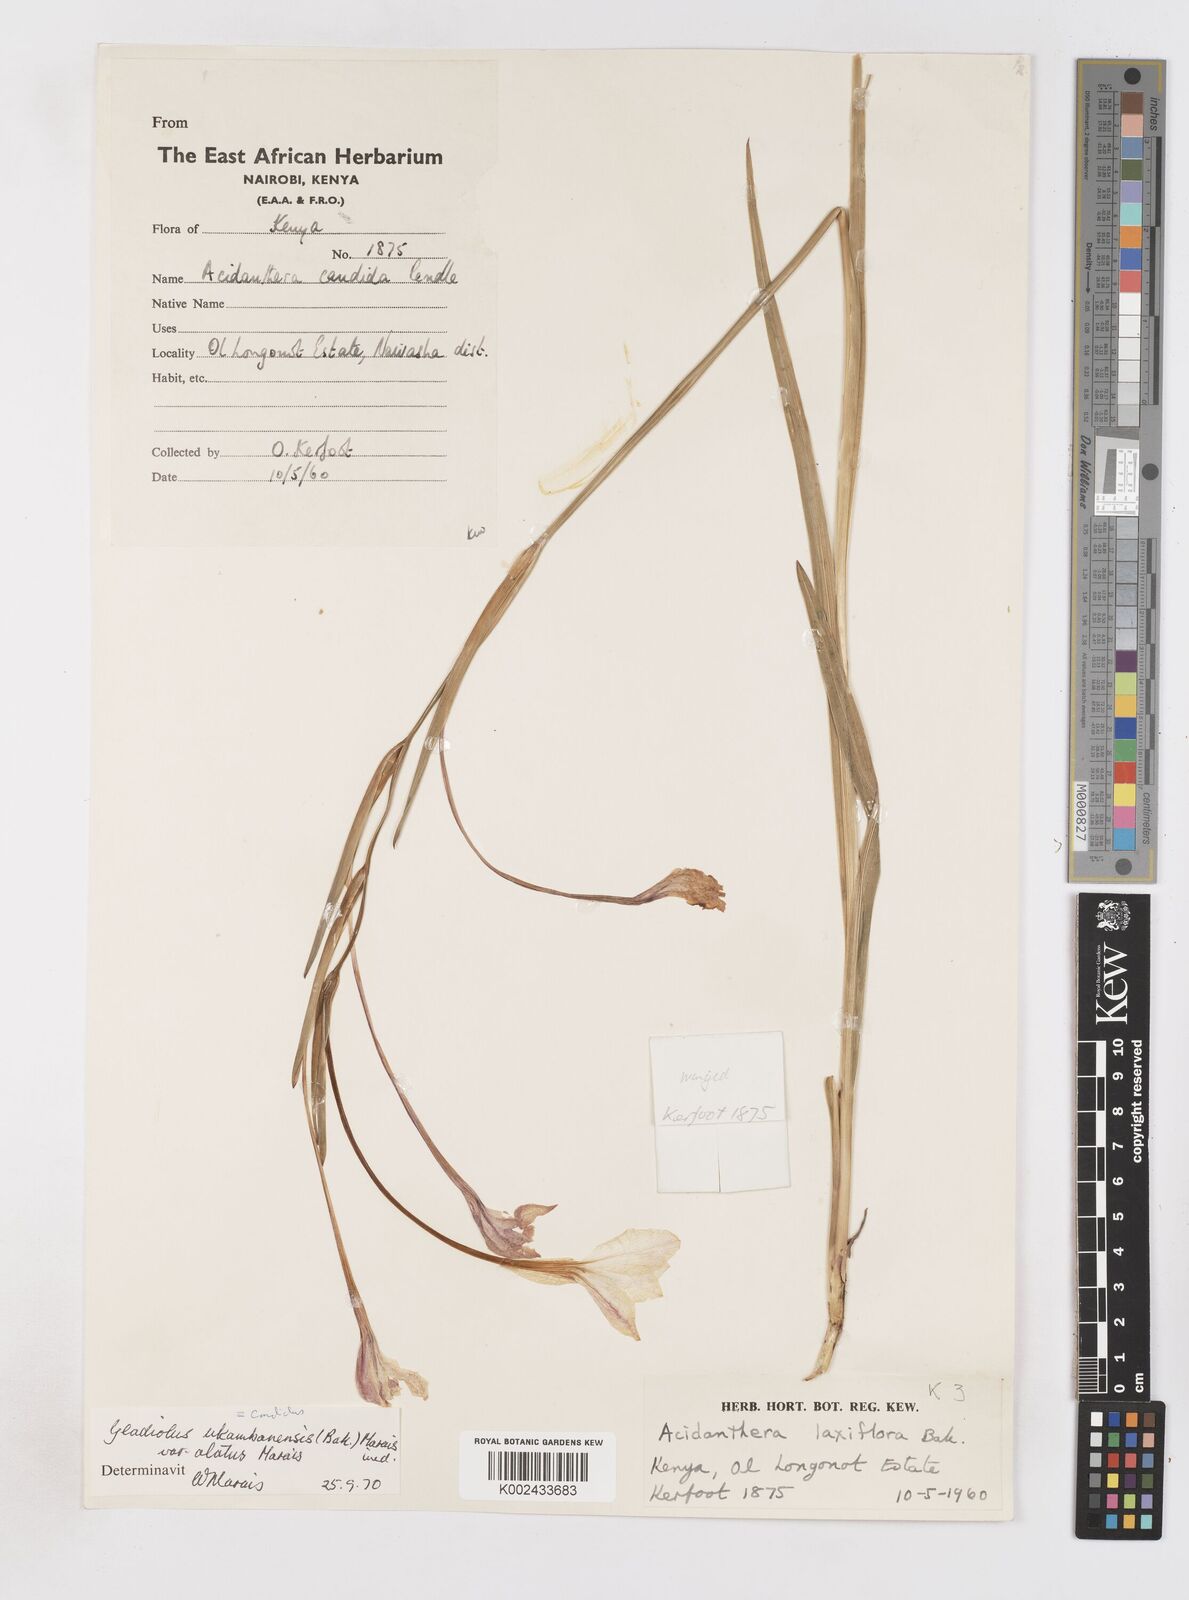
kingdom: Plantae
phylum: Tracheophyta
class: Liliopsida
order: Asparagales
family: Iridaceae
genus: Gladiolus
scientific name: Gladiolus candidus
